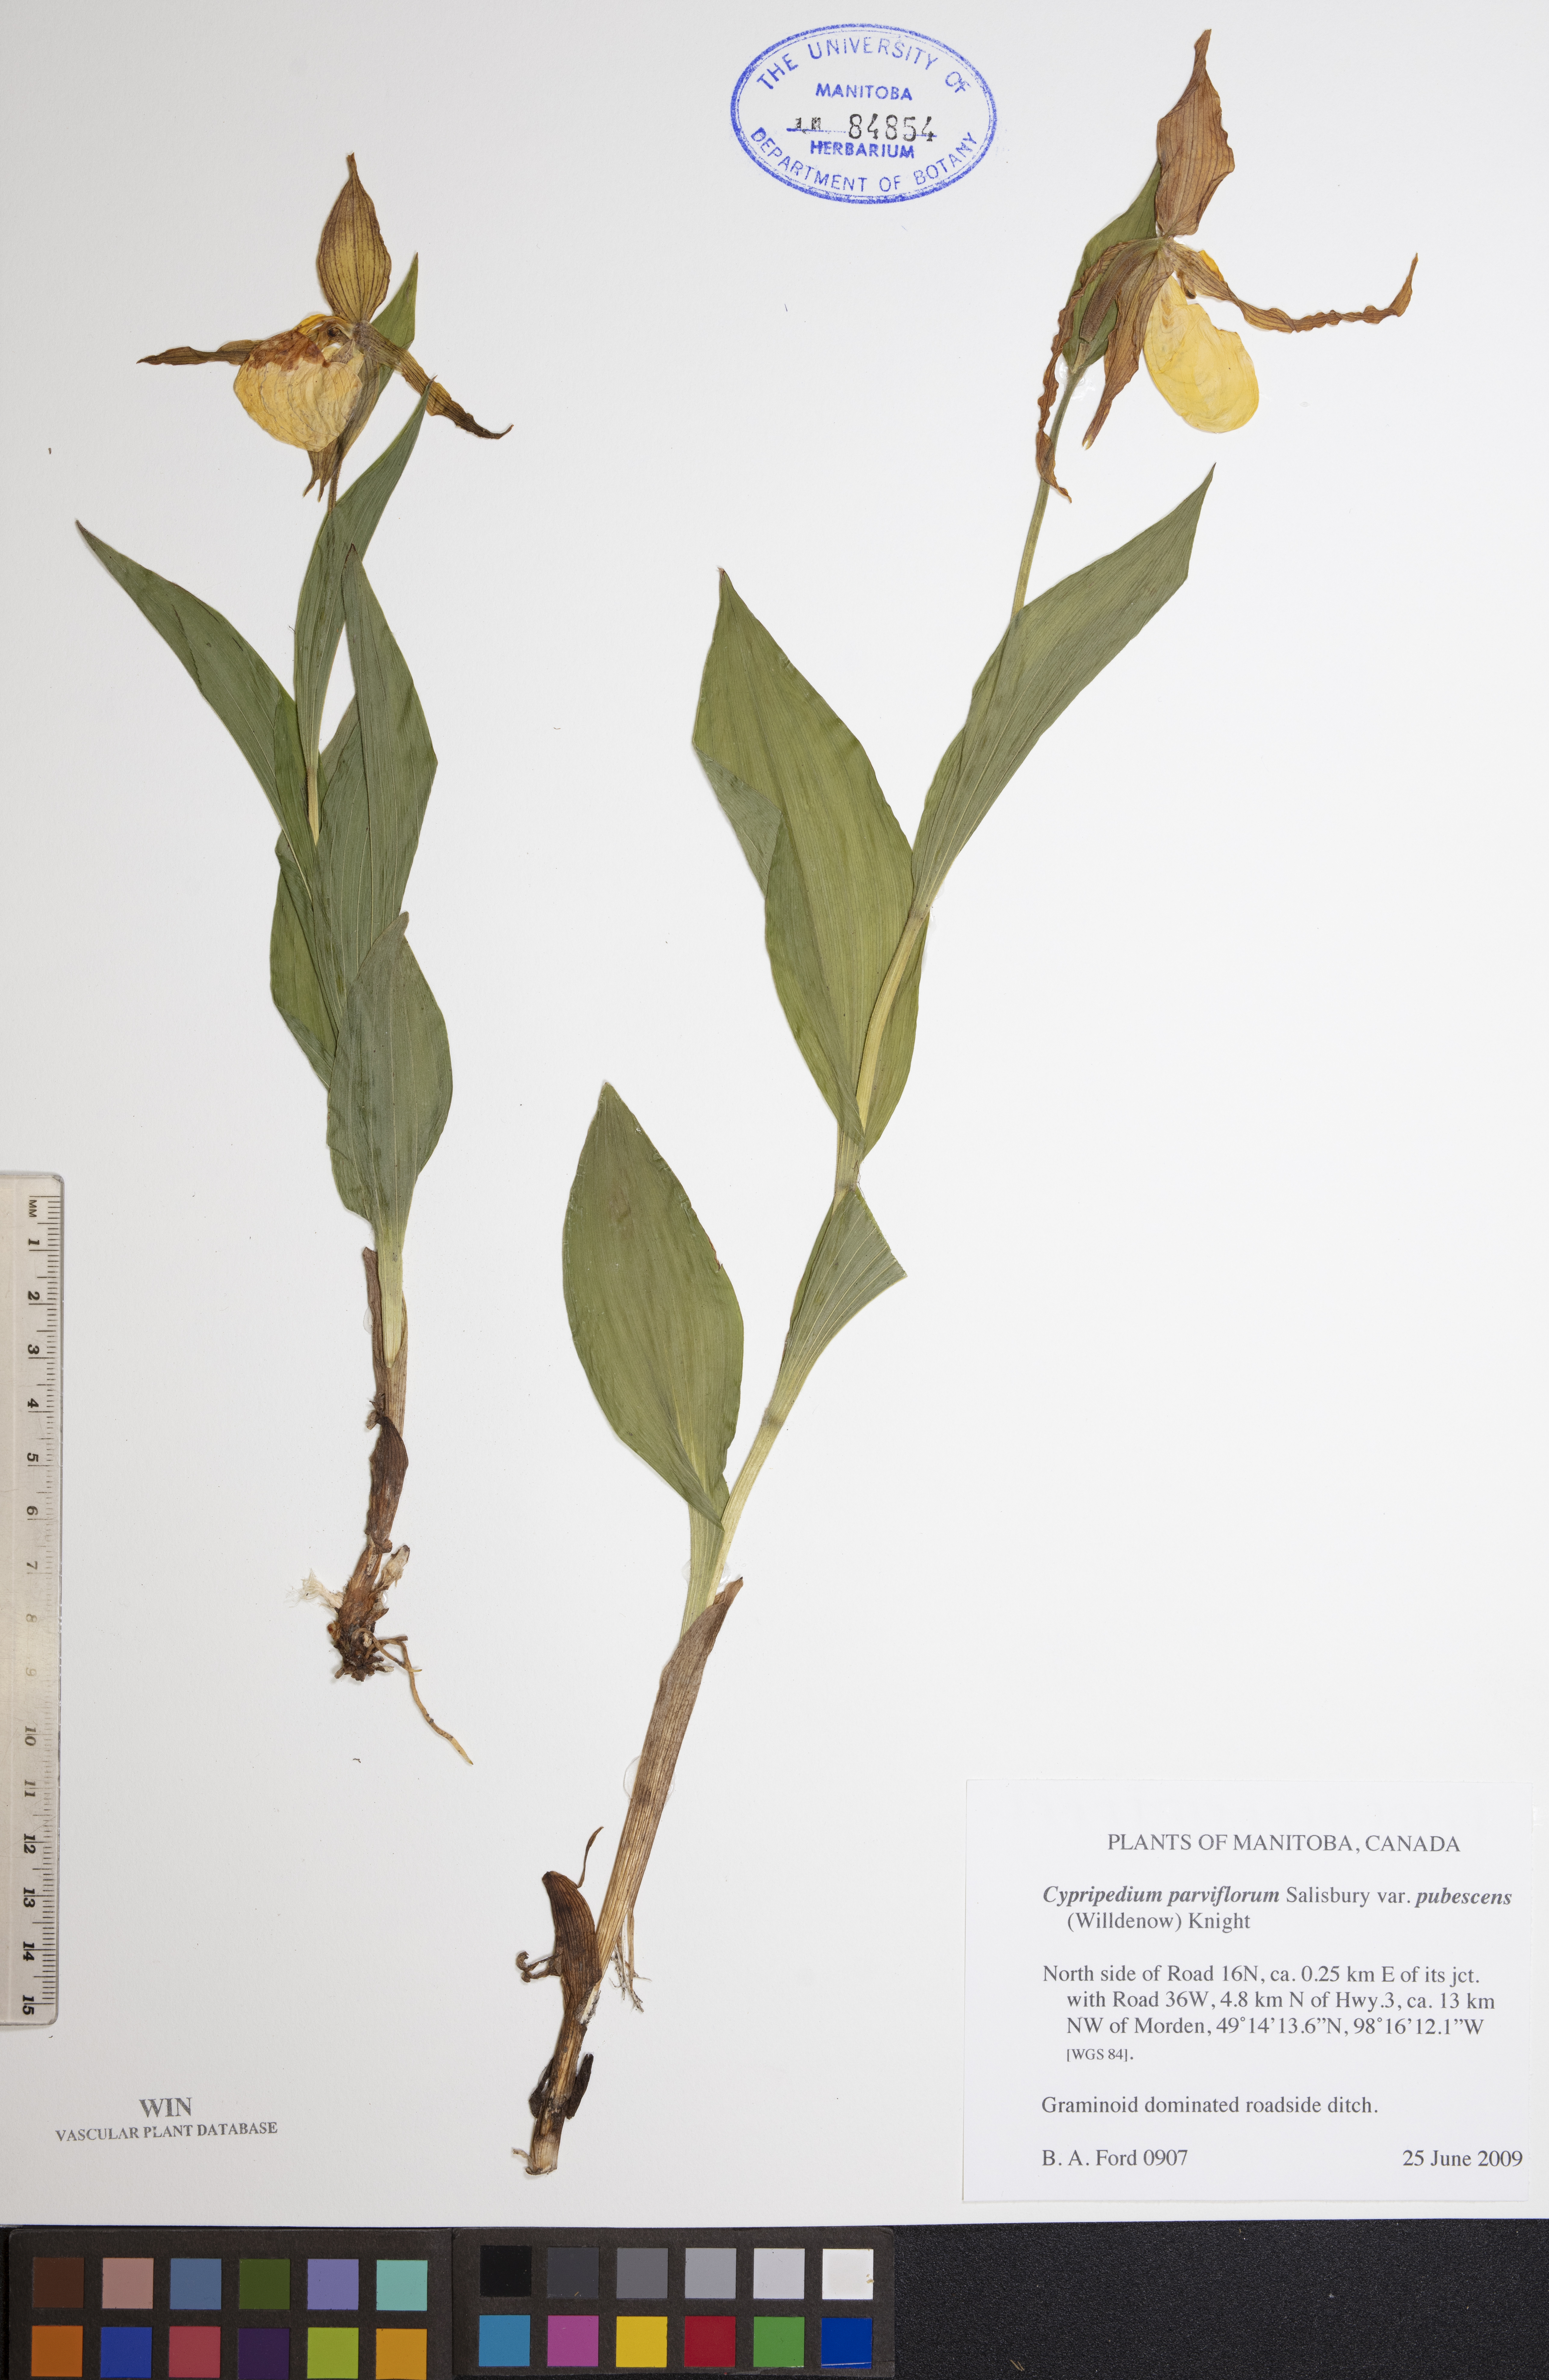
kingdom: Plantae
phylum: Tracheophyta
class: Liliopsida
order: Asparagales
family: Orchidaceae
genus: Cypripedium
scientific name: Cypripedium parviflorum
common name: American yellow lady's-slipper
